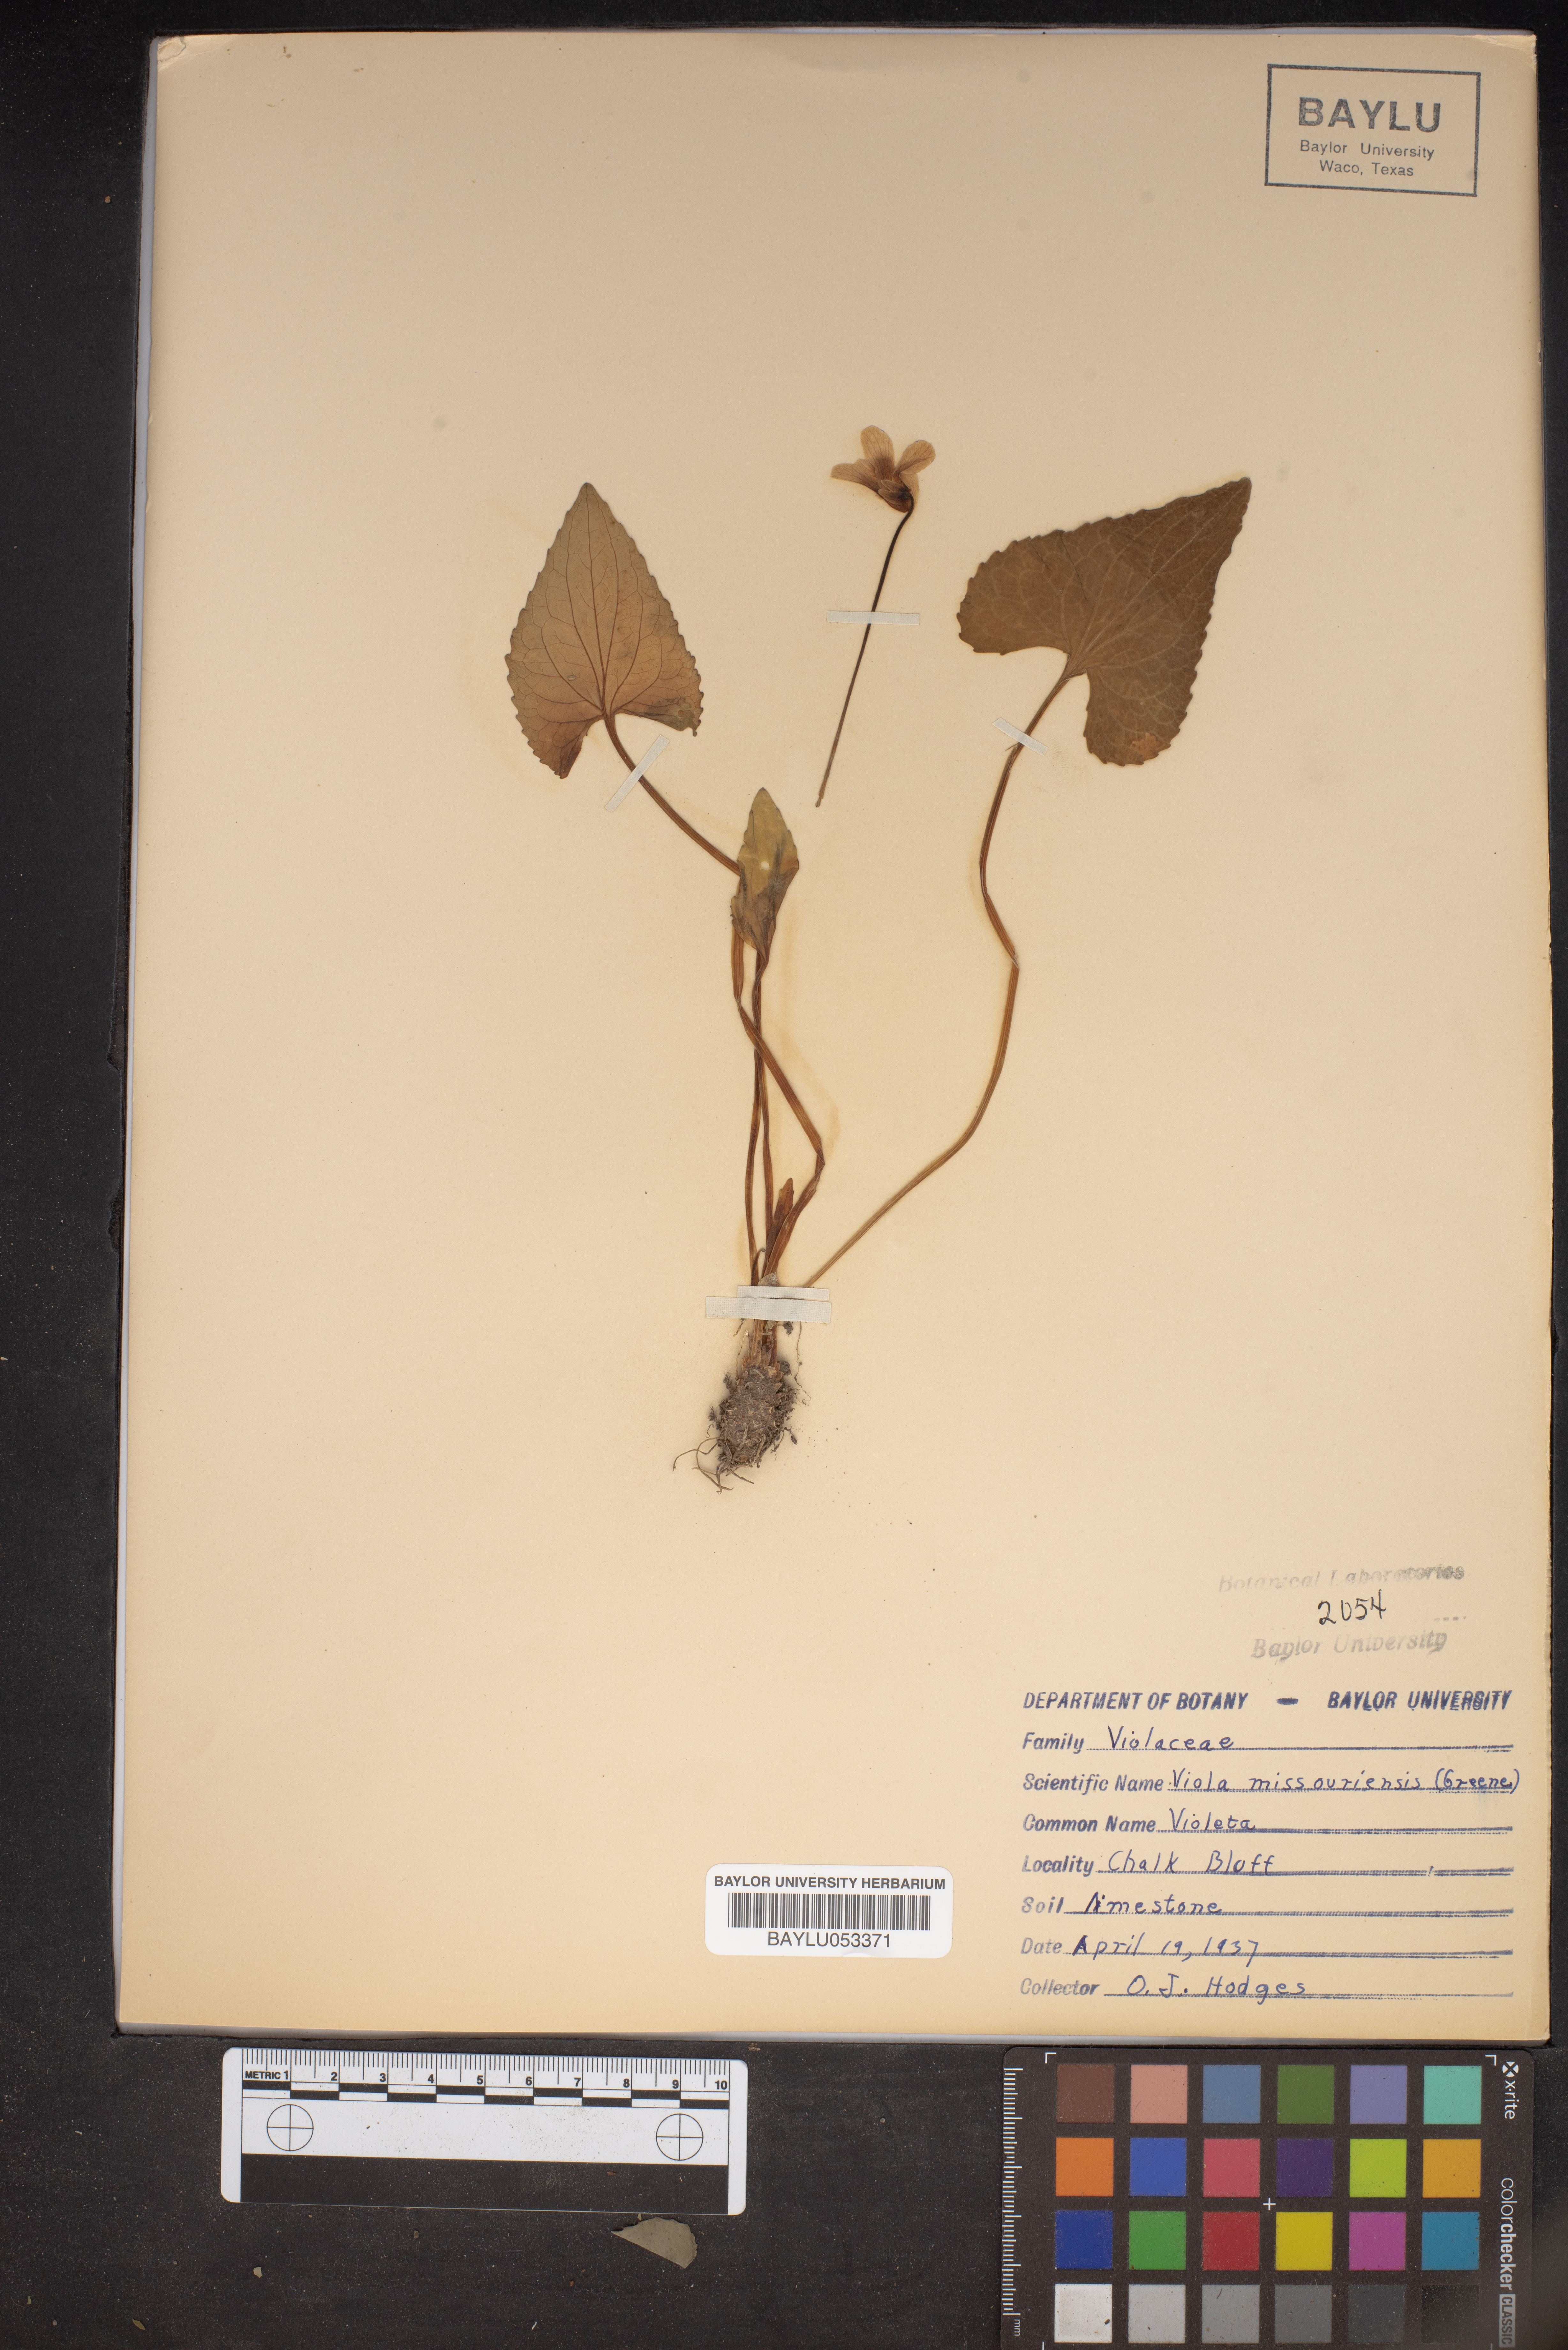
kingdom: Plantae
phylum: Tracheophyta
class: Magnoliopsida
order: Malpighiales
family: Violaceae
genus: Viola
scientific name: Viola missouriensis
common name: Missouri violet
